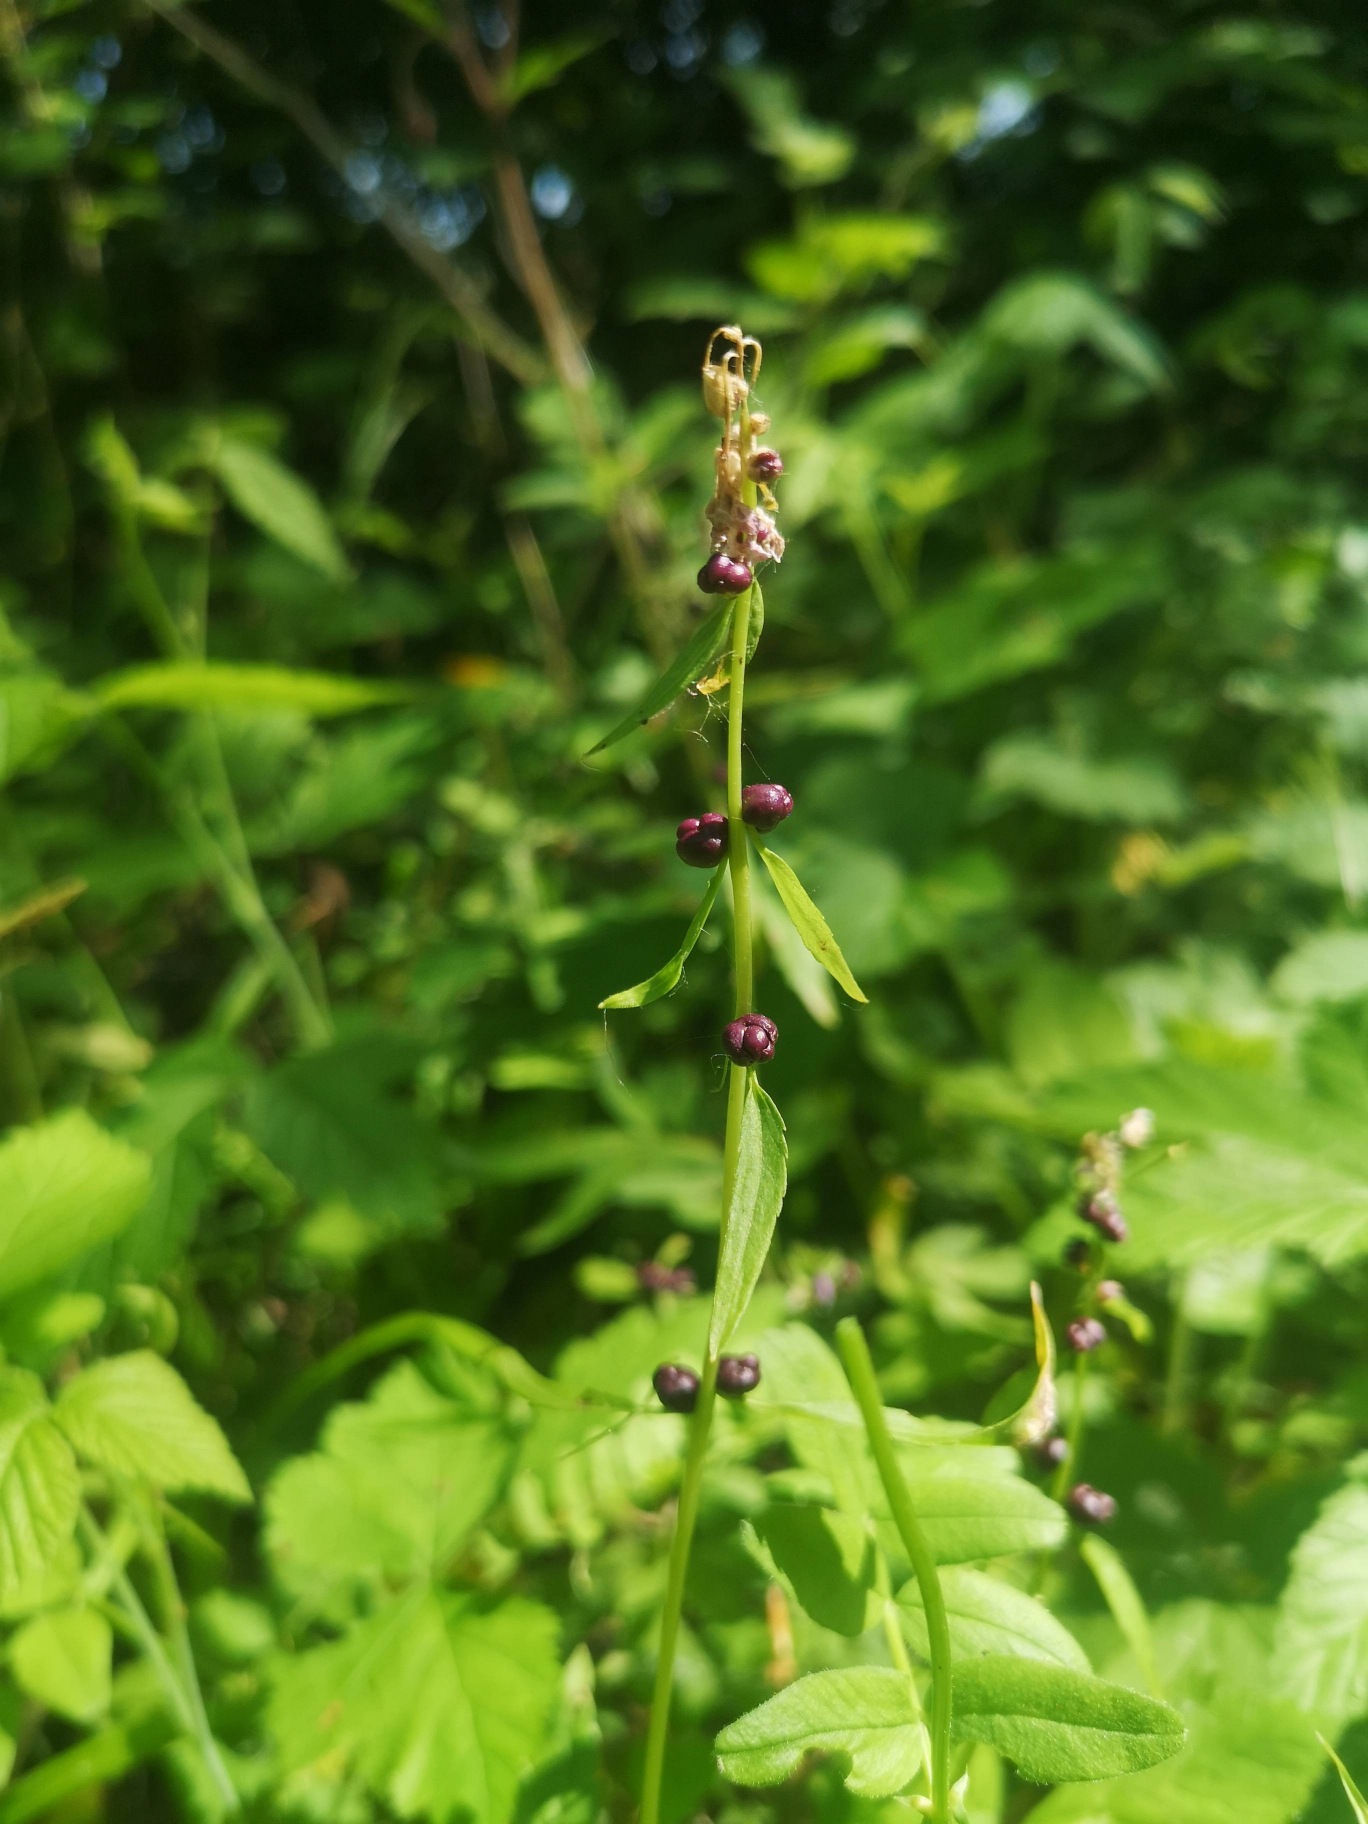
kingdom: Plantae
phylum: Tracheophyta
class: Magnoliopsida
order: Brassicales
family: Brassicaceae
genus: Cardamine
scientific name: Cardamine bulbifera
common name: Tandrod
